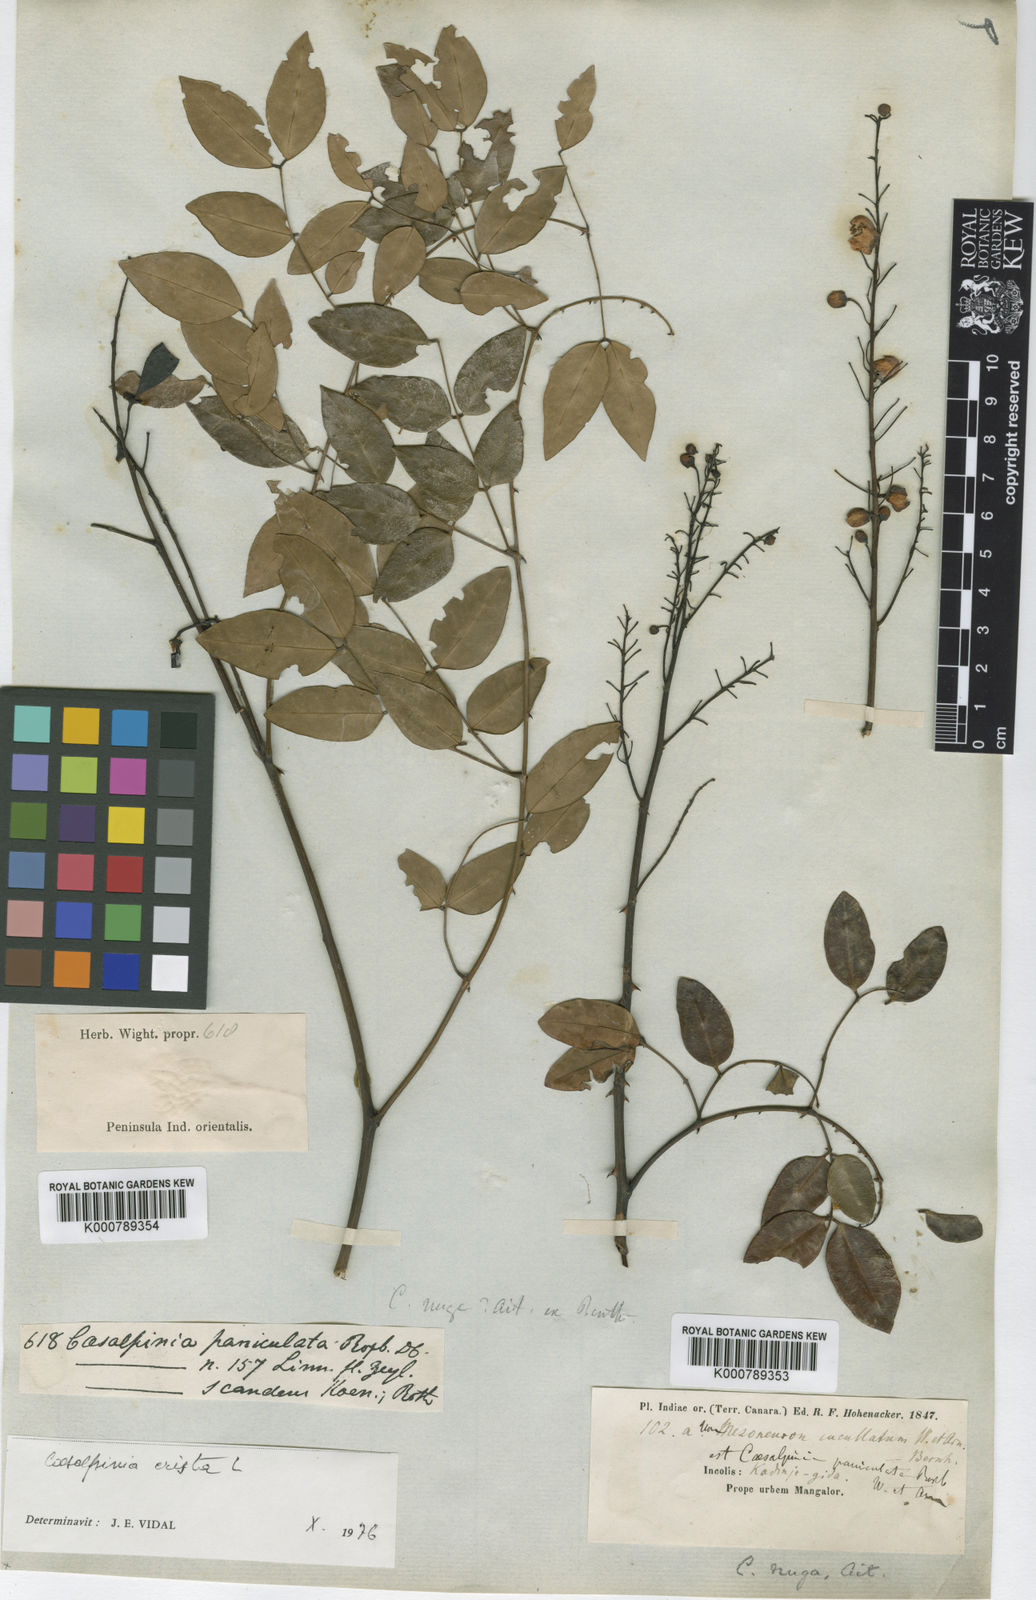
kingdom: Plantae
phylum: Tracheophyta
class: Magnoliopsida
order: Fabales
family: Fabaceae
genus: Caesalpinia
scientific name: Caesalpinia Ticanto crista
